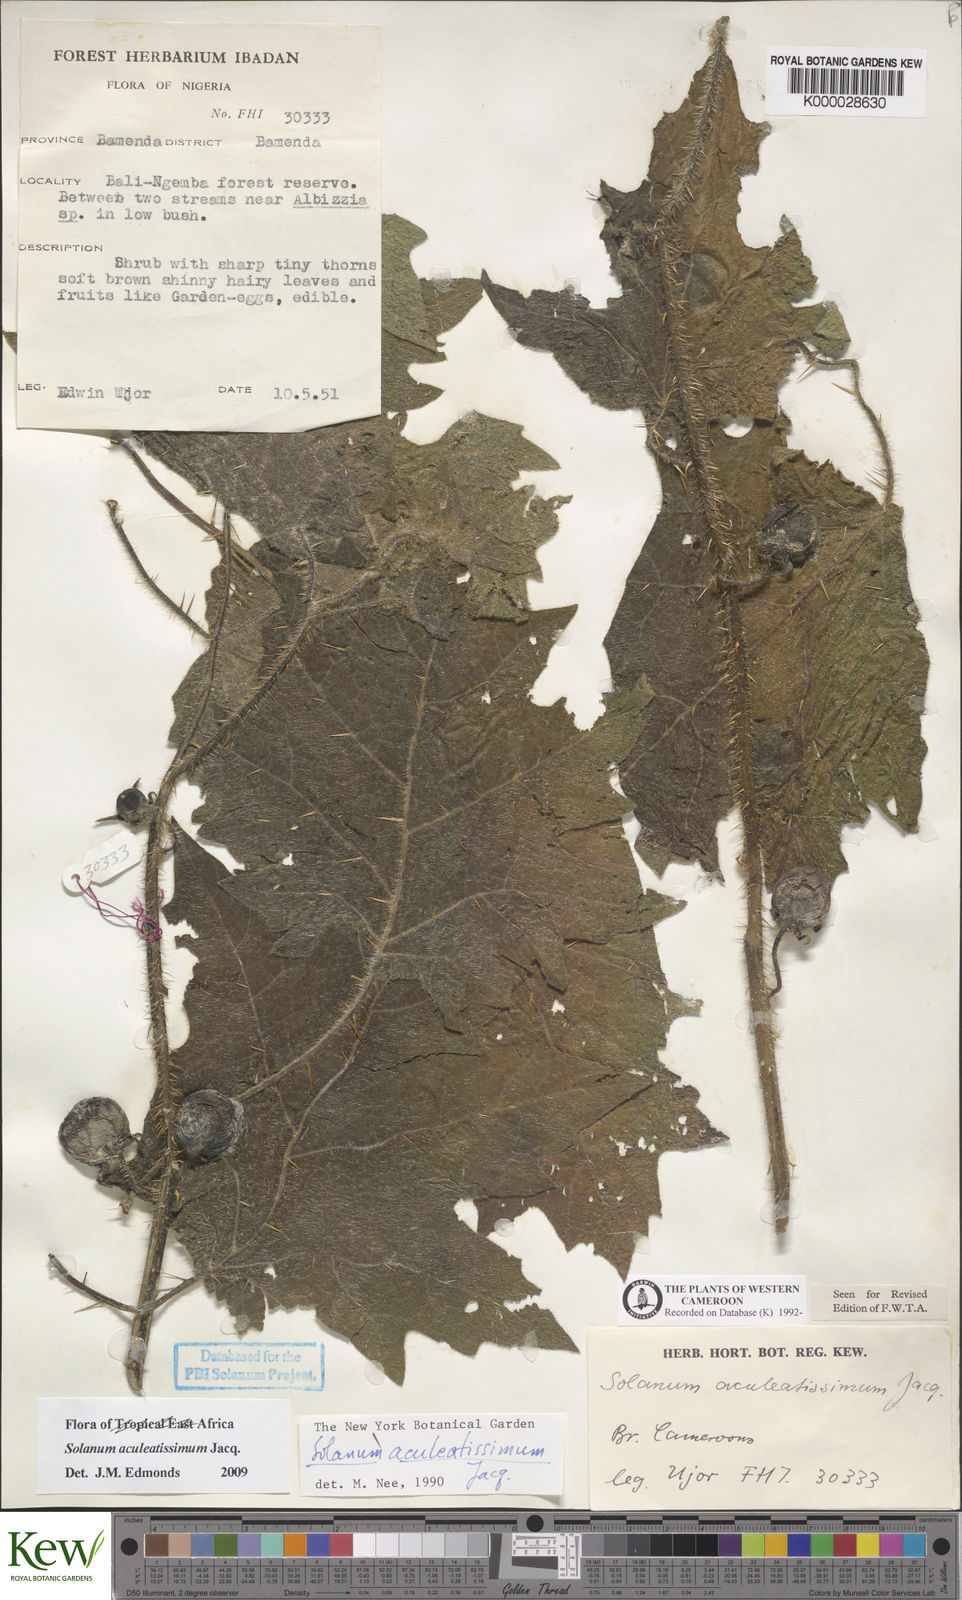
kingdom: Plantae
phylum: Tracheophyta
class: Magnoliopsida
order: Solanales
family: Solanaceae
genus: Solanum
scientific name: Solanum aculeatissimum
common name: Dutch eggplant
